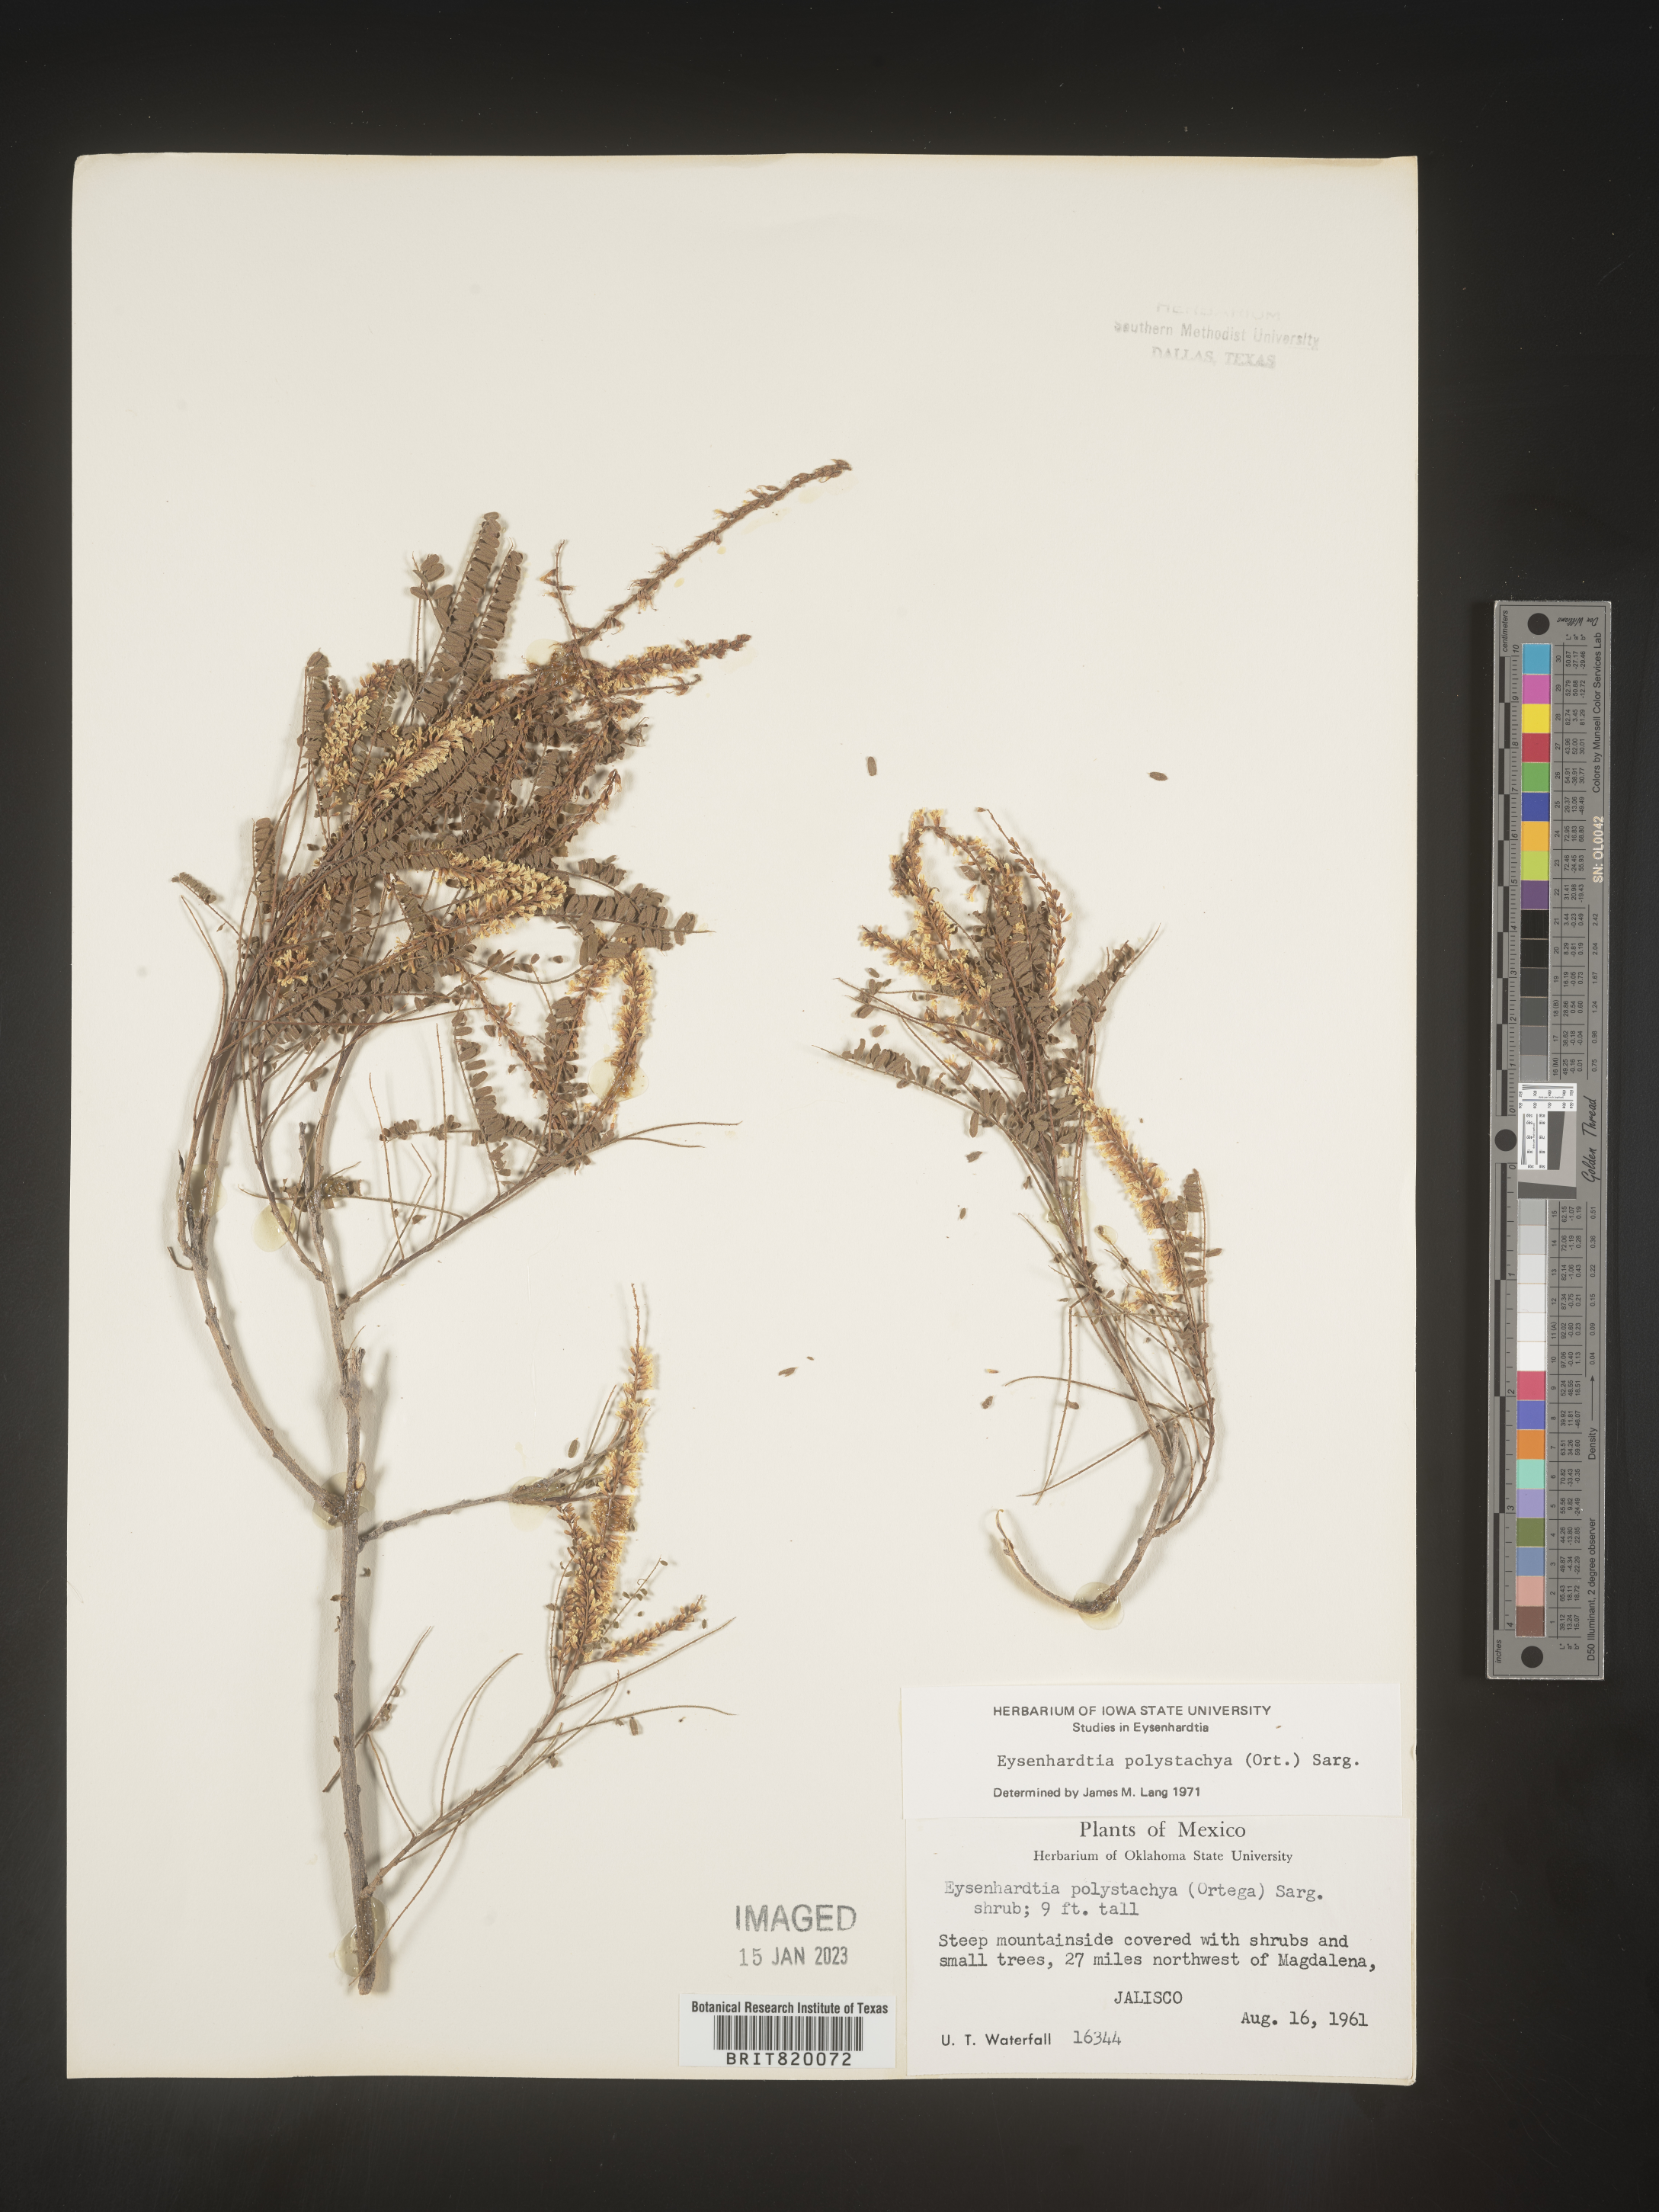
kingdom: Plantae
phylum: Tracheophyta
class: Magnoliopsida
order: Fabales
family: Fabaceae
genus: Eysenhardtia
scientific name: Eysenhardtia
